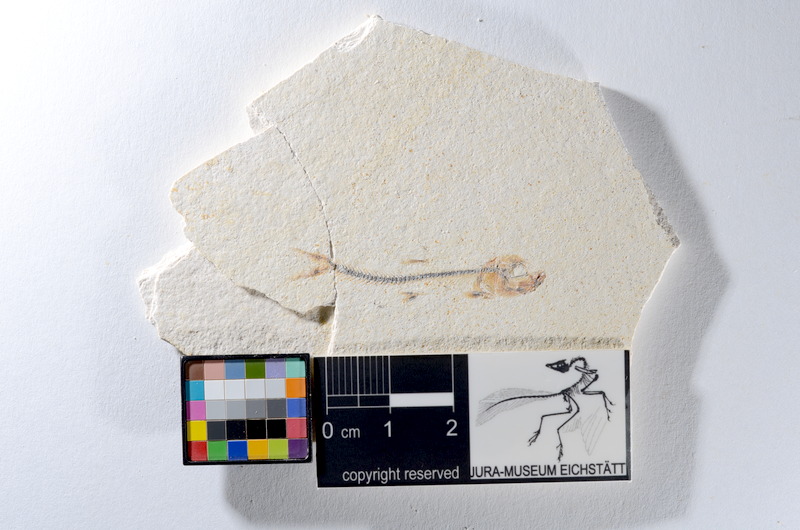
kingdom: Animalia
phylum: Chordata
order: Salmoniformes
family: Orthogonikleithridae
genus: Orthogonikleithrus
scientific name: Orthogonikleithrus hoelli
